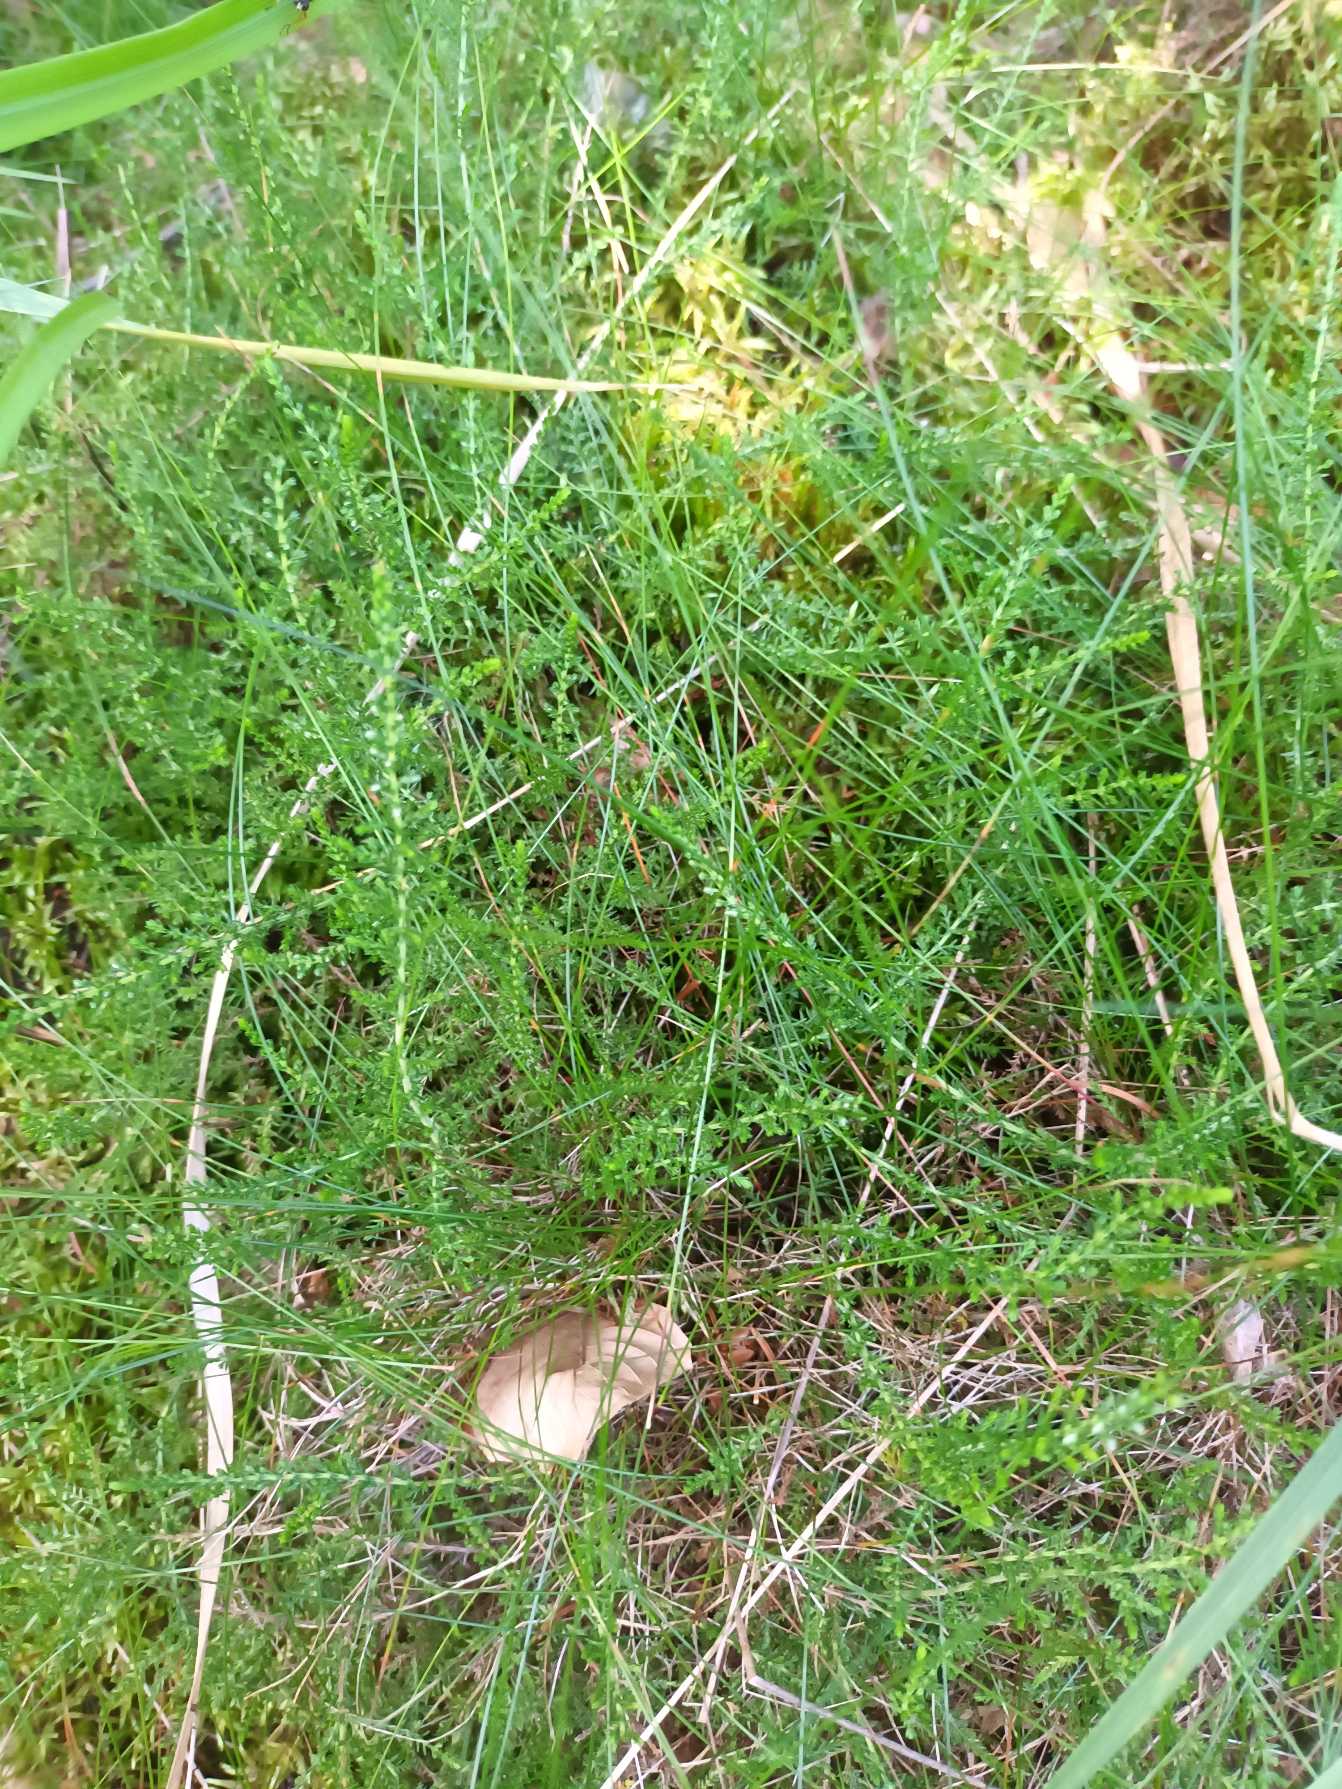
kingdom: Plantae
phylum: Tracheophyta
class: Magnoliopsida
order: Ericales
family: Ericaceae
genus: Calluna
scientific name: Calluna vulgaris
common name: Hedelyng
